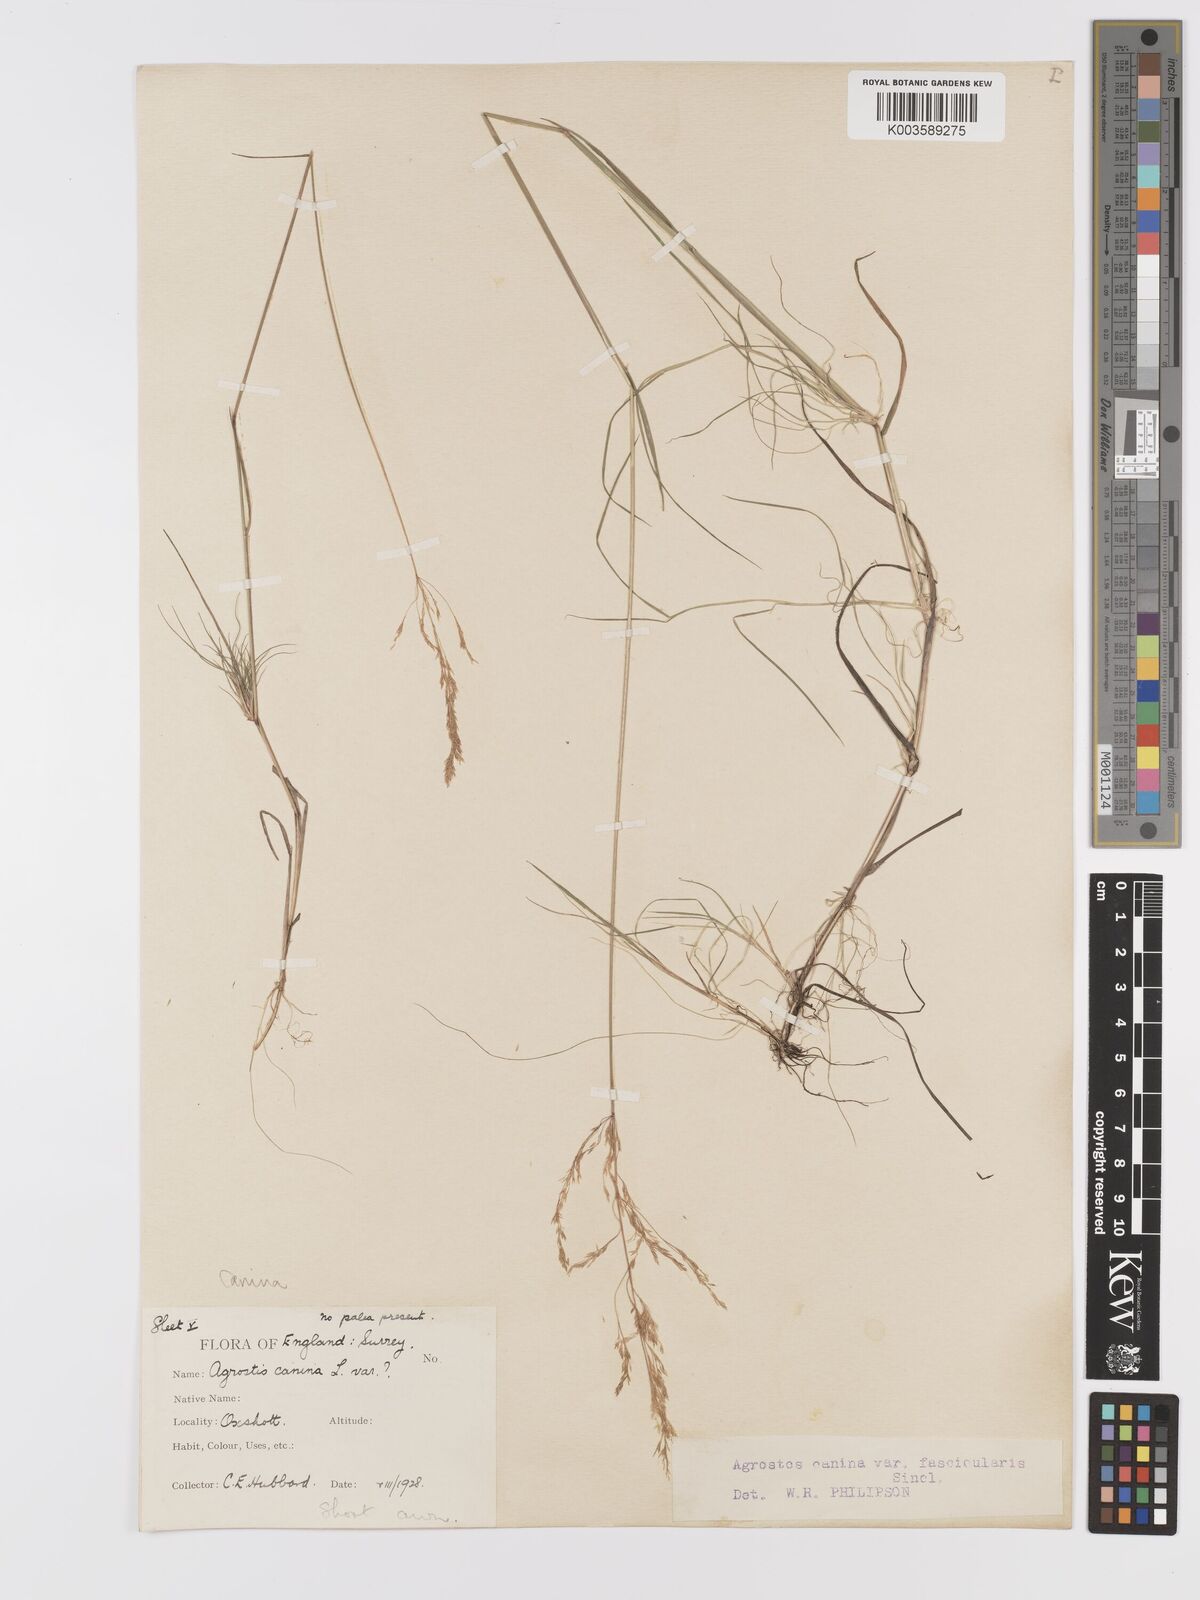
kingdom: Plantae
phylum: Tracheophyta
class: Liliopsida
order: Poales
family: Poaceae
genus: Agrostis
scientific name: Agrostis canina
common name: Velvet bent
